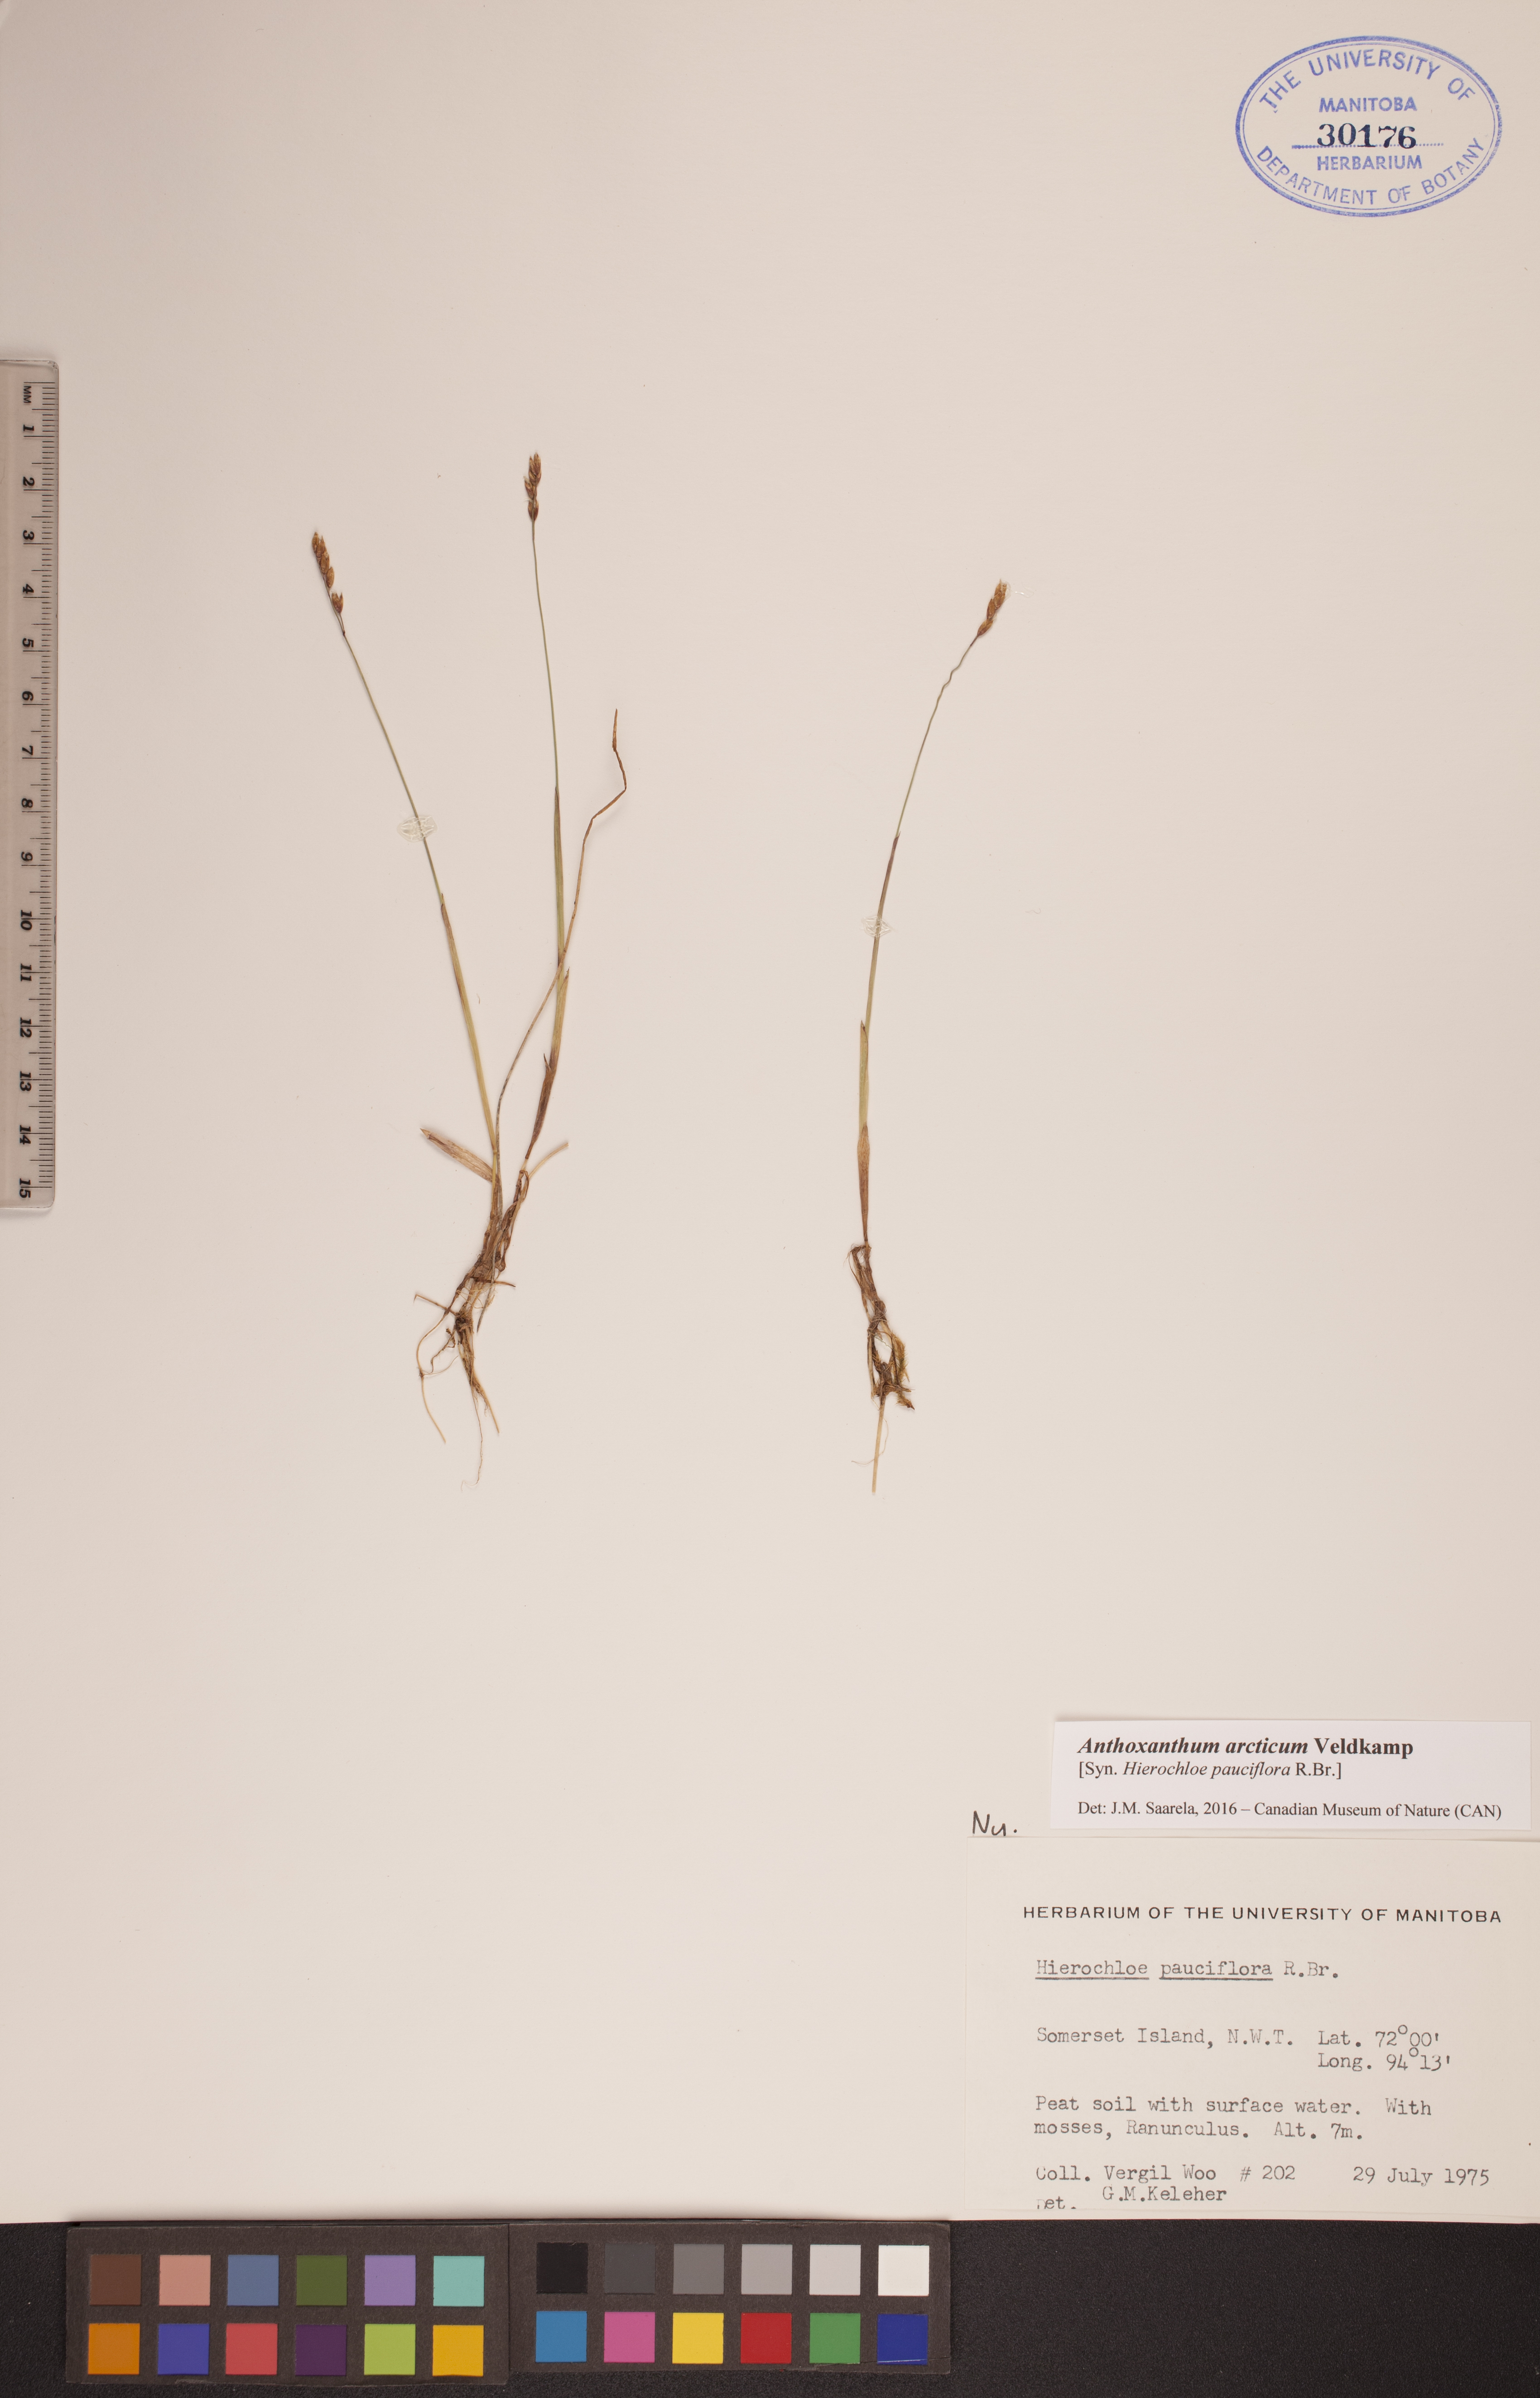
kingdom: Plantae
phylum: Tracheophyta
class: Liliopsida
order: Poales
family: Poaceae
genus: Anthoxanthum
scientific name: Anthoxanthum arcticum
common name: Arctic sweetgrass
